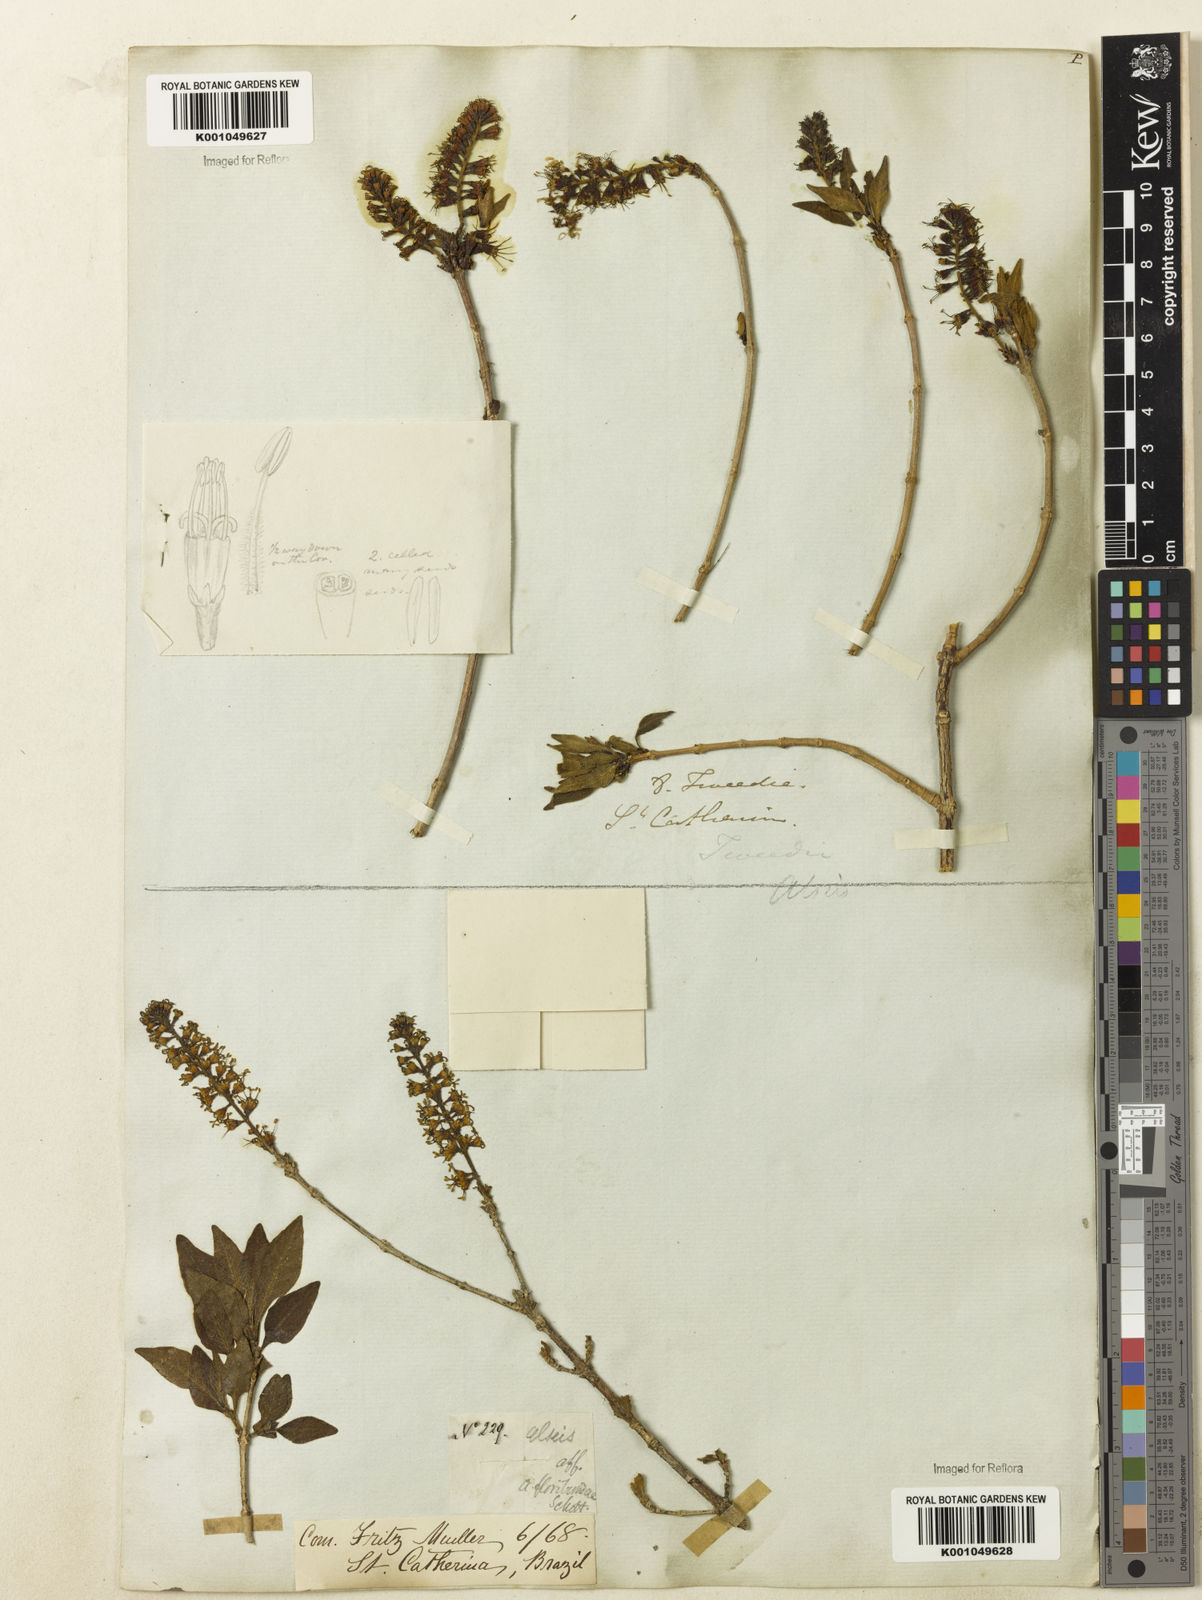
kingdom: Plantae
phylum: Tracheophyta
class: Magnoliopsida
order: Gentianales
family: Rubiaceae
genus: Alseis
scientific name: Alseis gardneri
